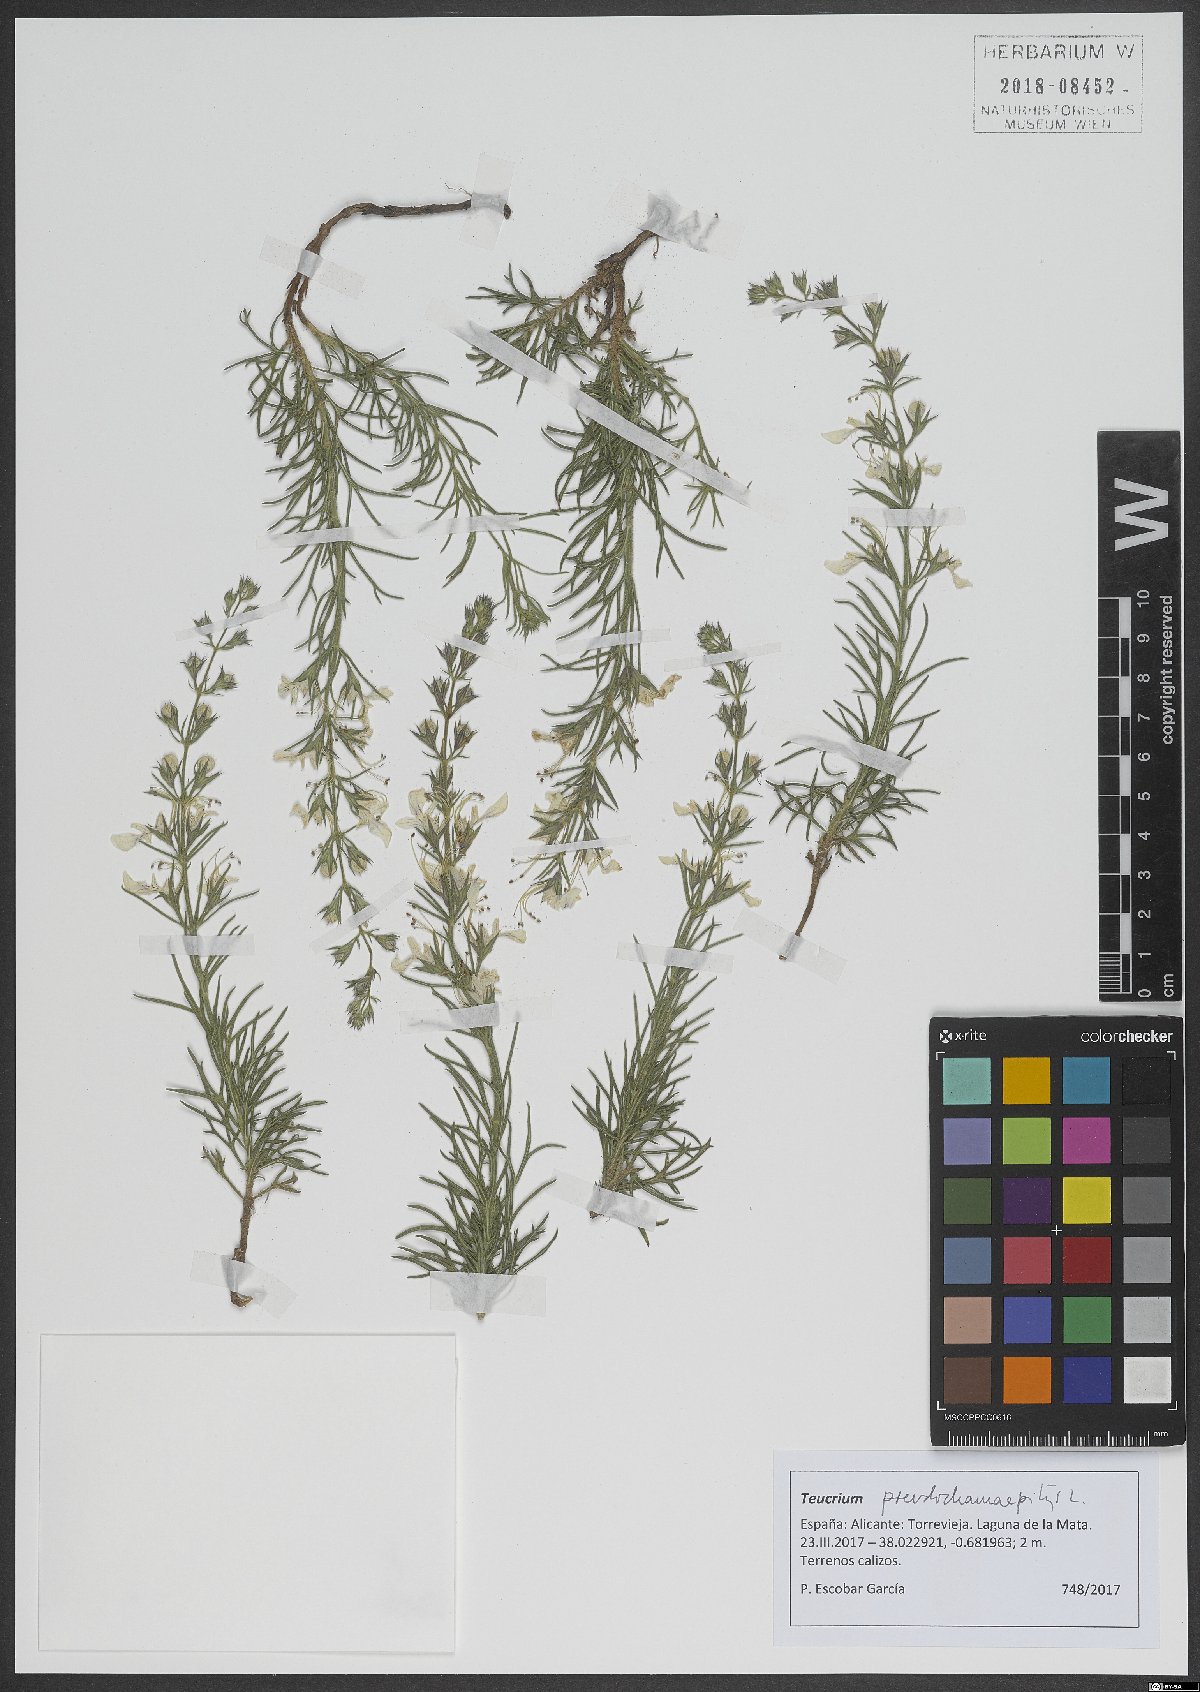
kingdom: Plantae
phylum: Tracheophyta
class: Magnoliopsida
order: Lamiales
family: Lamiaceae
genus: Teucrium
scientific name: Teucrium pseudochamaepitys
